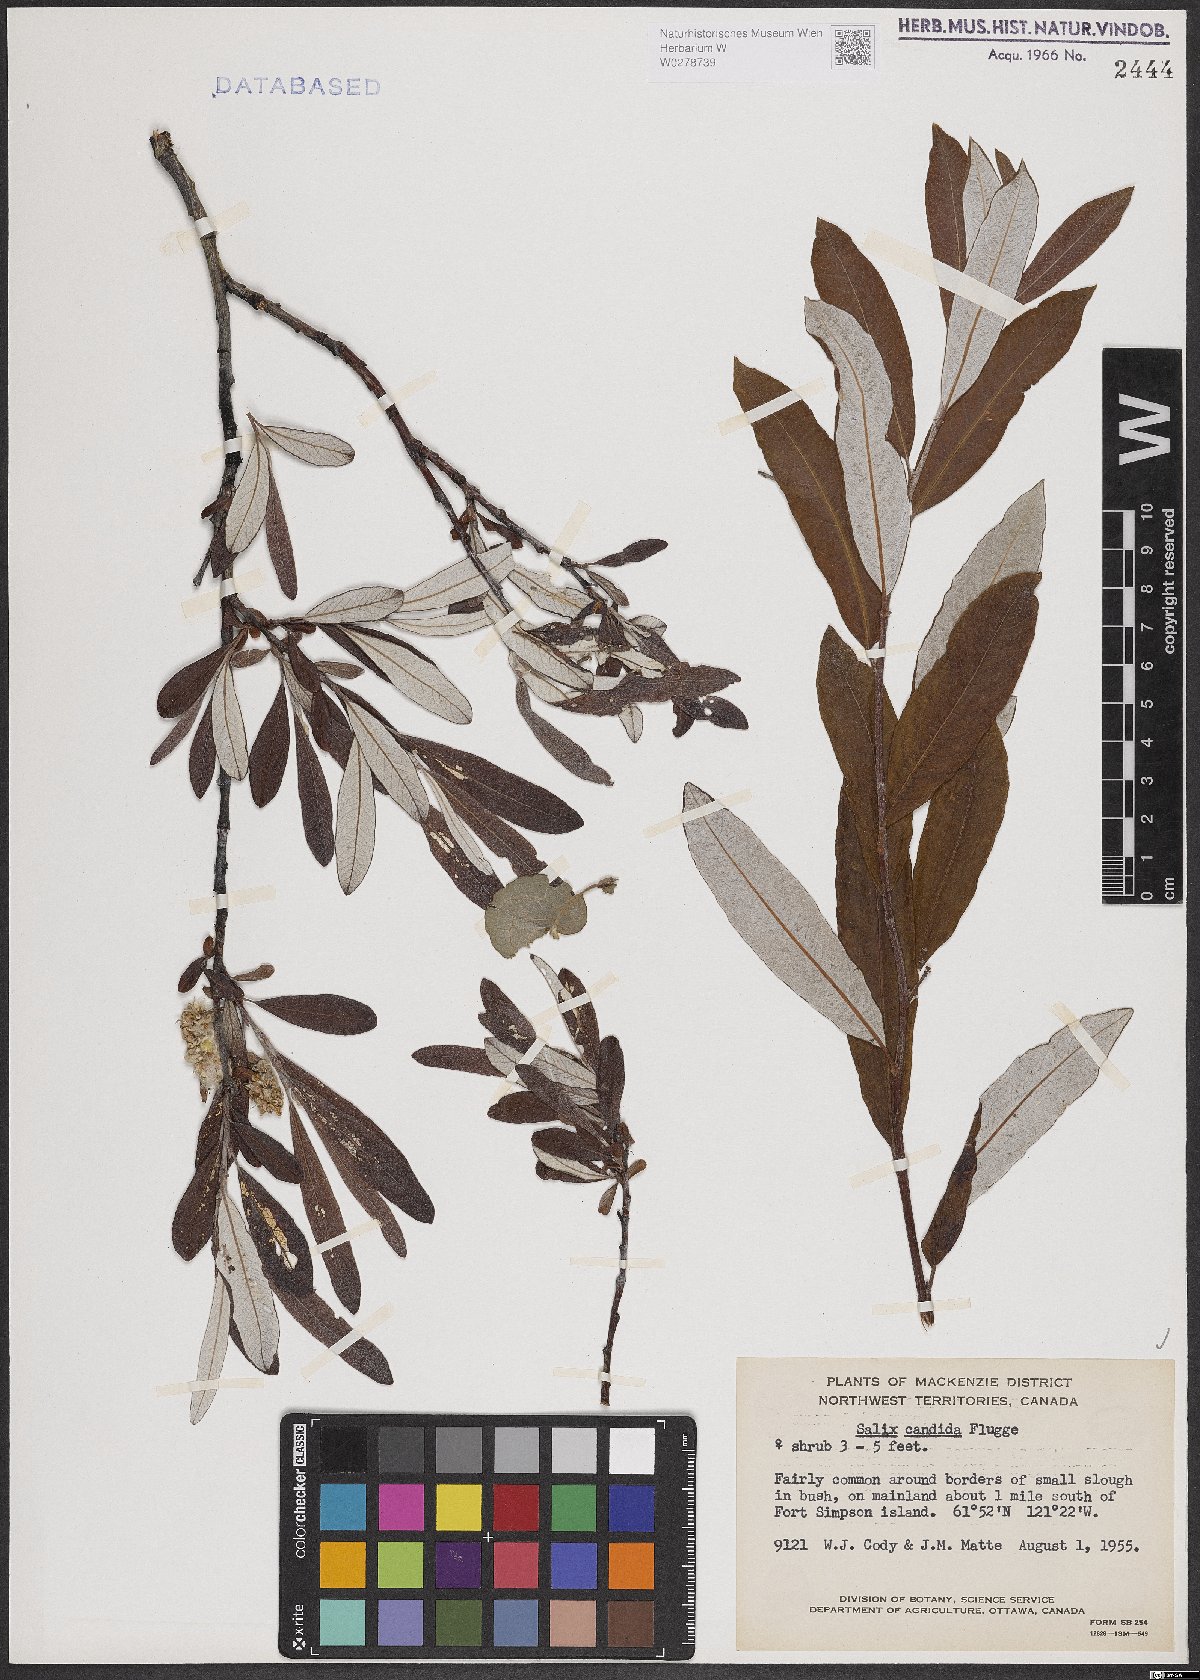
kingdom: Plantae
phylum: Tracheophyta
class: Magnoliopsida
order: Malpighiales
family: Salicaceae
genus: Salix
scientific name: Salix candida
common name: Hoary willow
